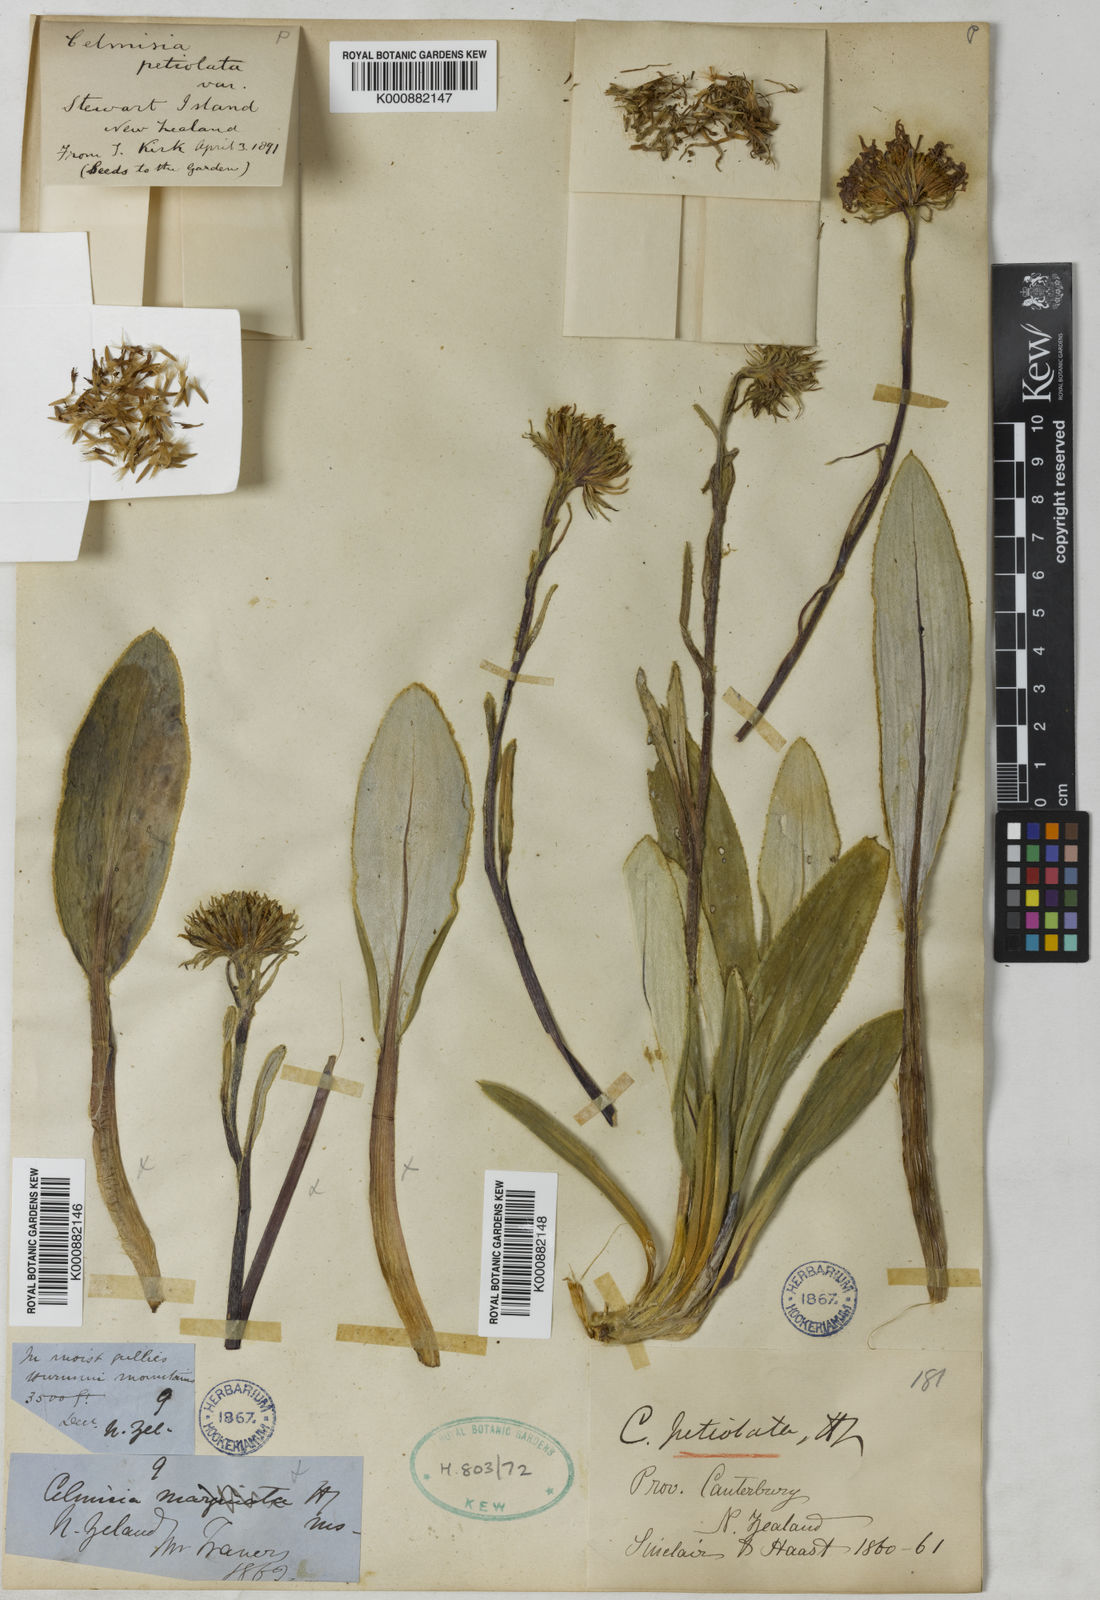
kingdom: Plantae
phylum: Tracheophyta
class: Magnoliopsida
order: Asterales
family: Asteraceae
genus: Celmisia
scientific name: Celmisia petiolata
